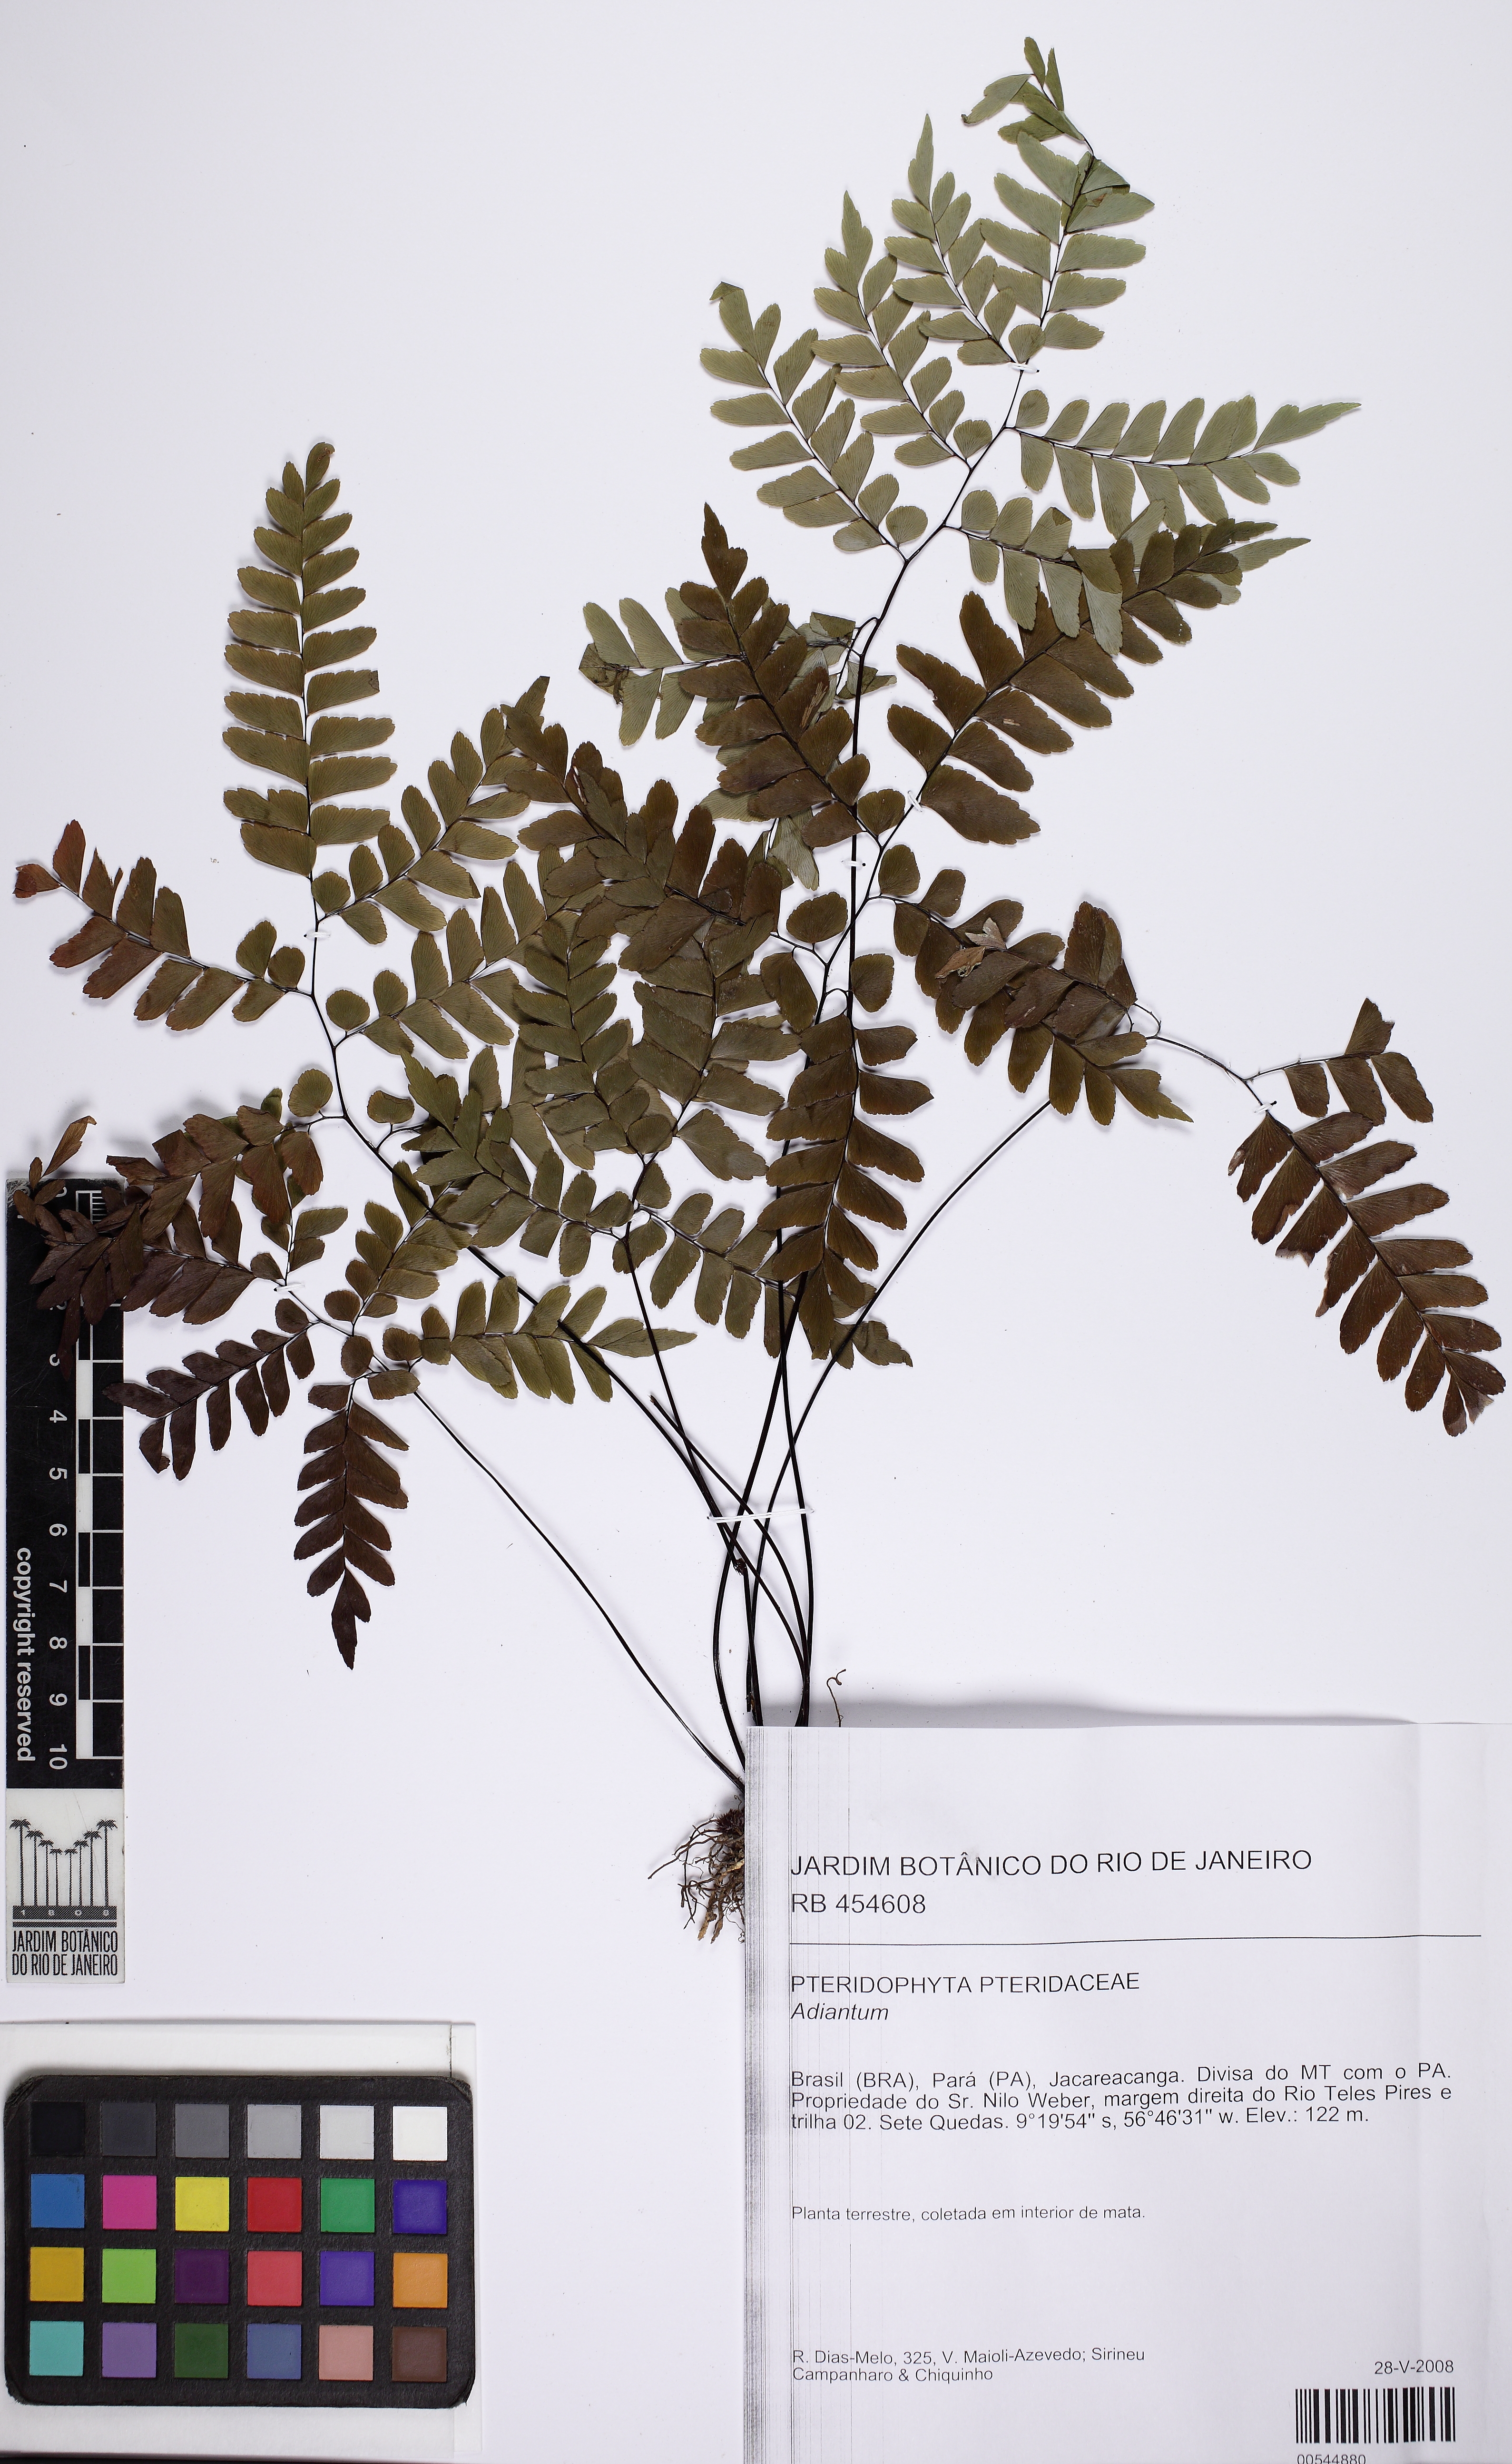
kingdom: Plantae
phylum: Tracheophyta
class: Polypodiopsida
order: Polypodiales
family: Pteridaceae
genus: Adiantum
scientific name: Adiantum glaucescens
